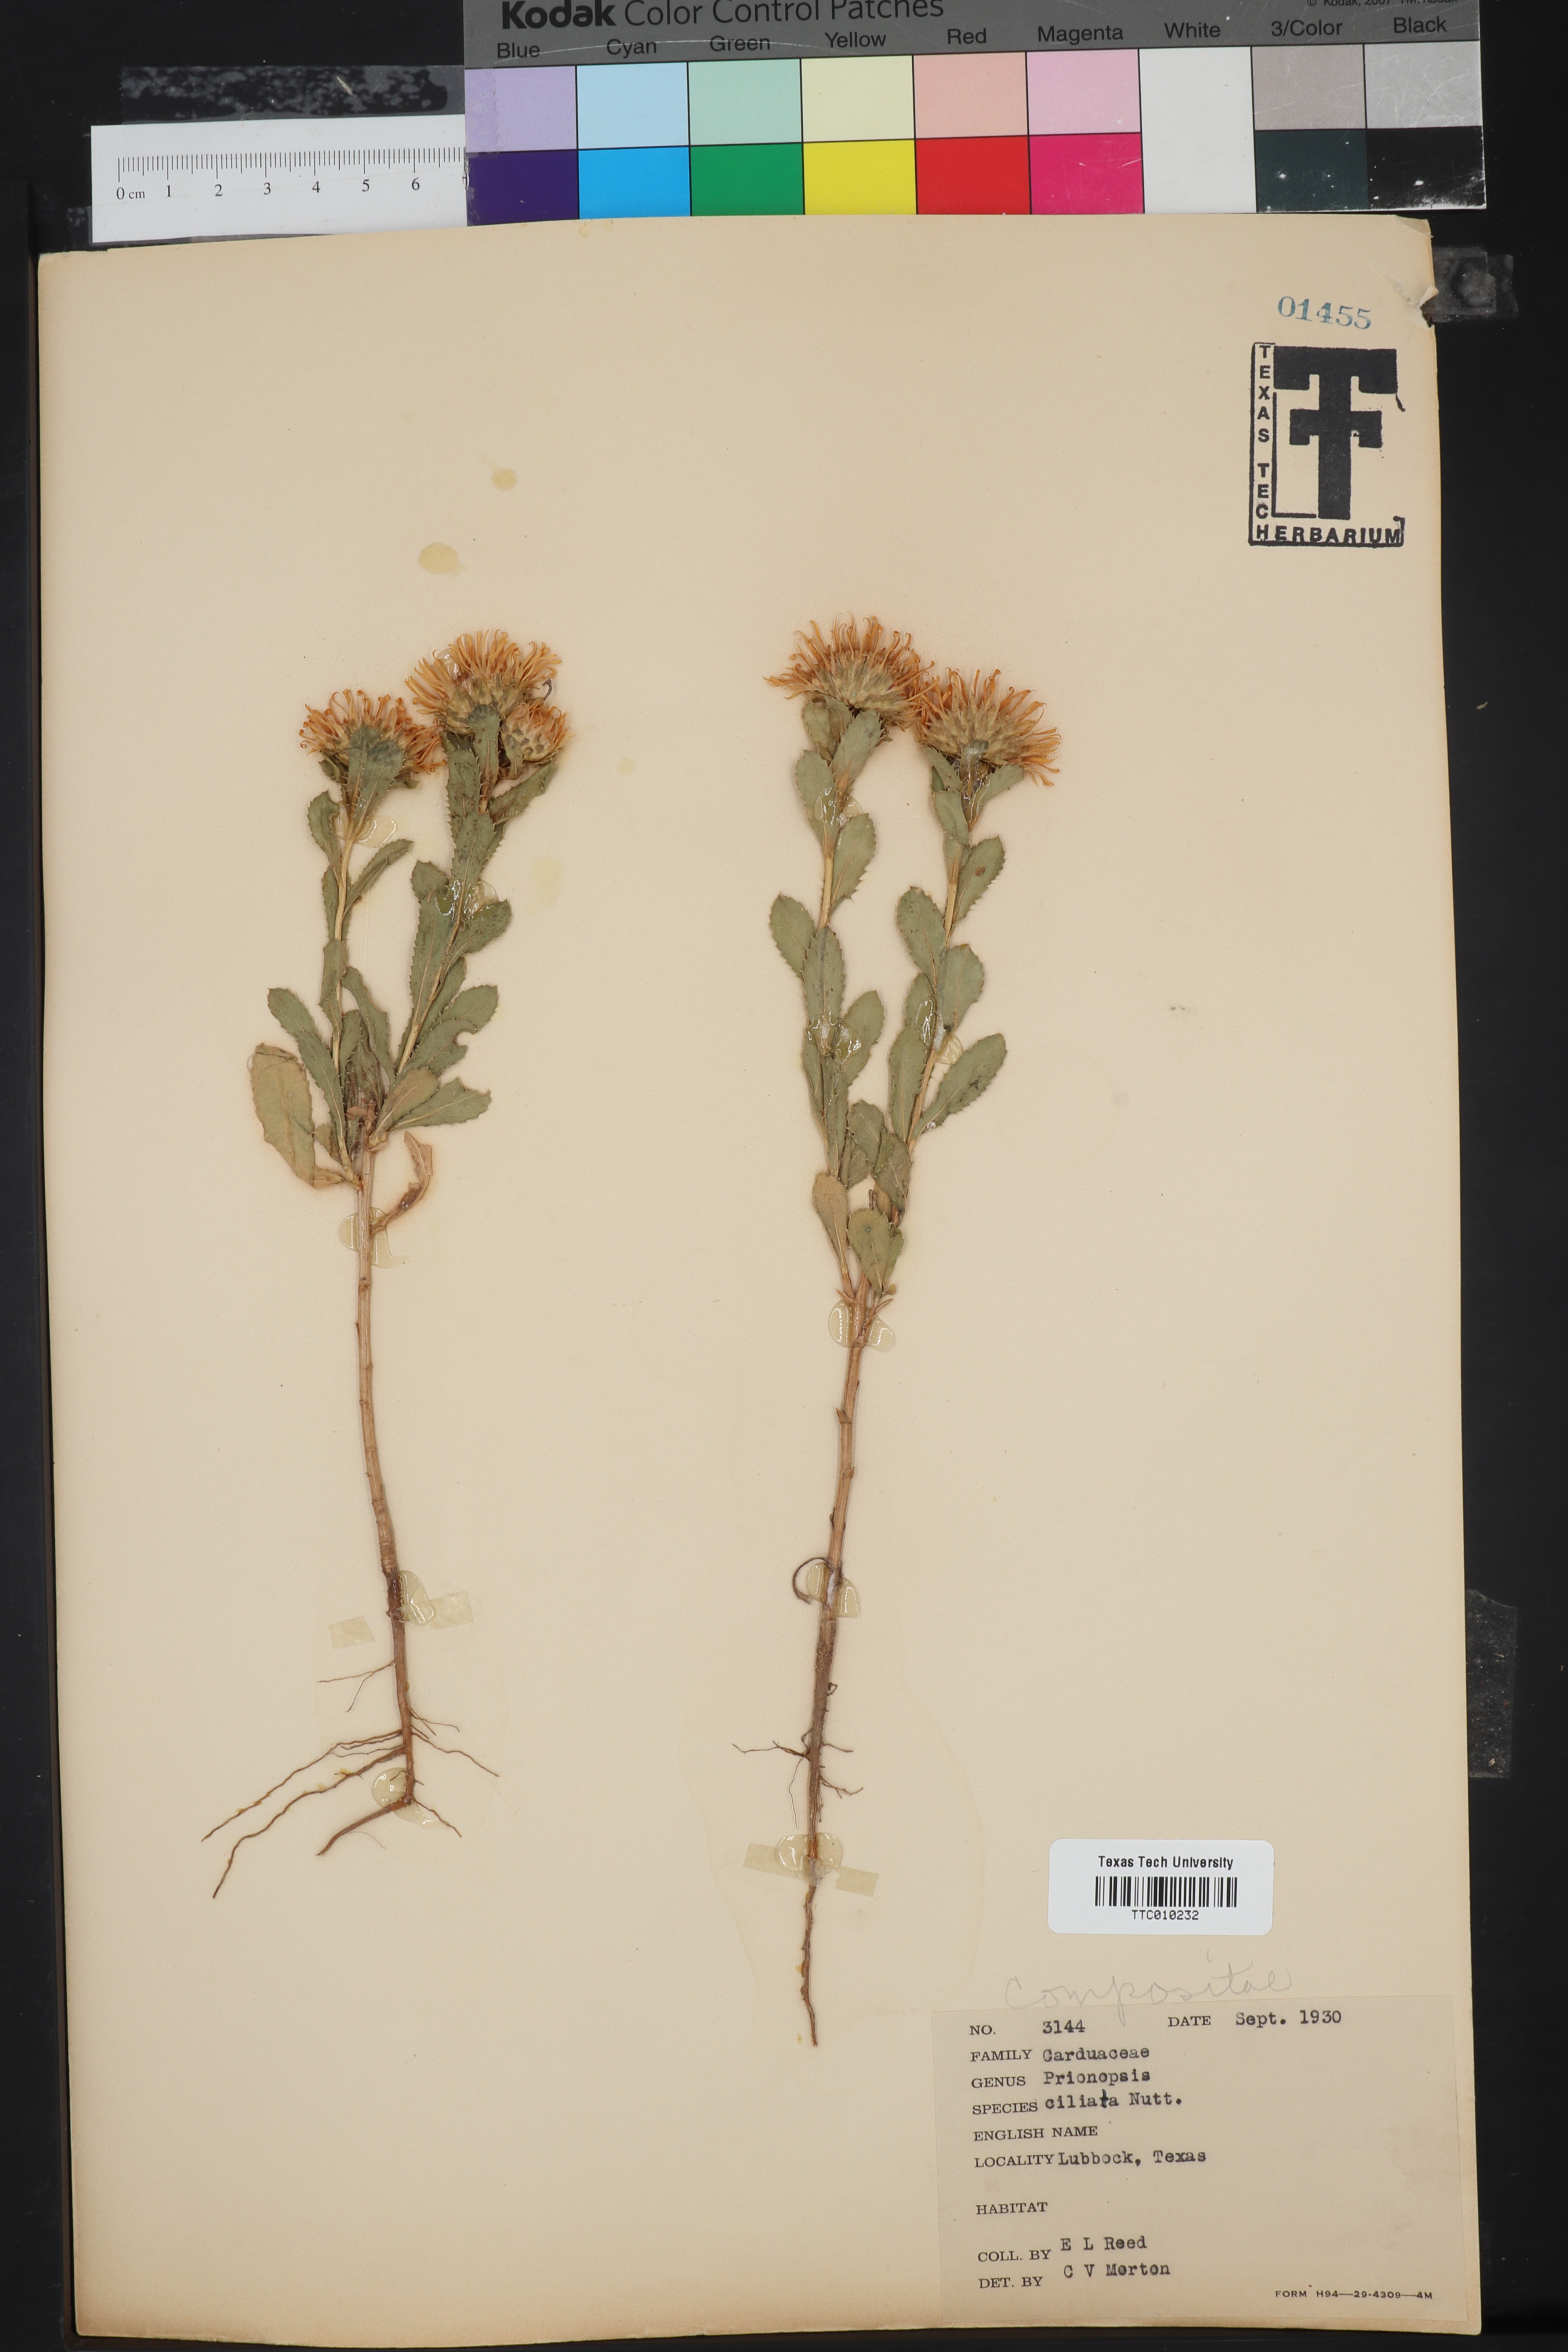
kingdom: Plantae
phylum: Tracheophyta
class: Magnoliopsida
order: Asterales
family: Asteraceae
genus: Grindelia
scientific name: Grindelia ciliata
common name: Goldenweed
